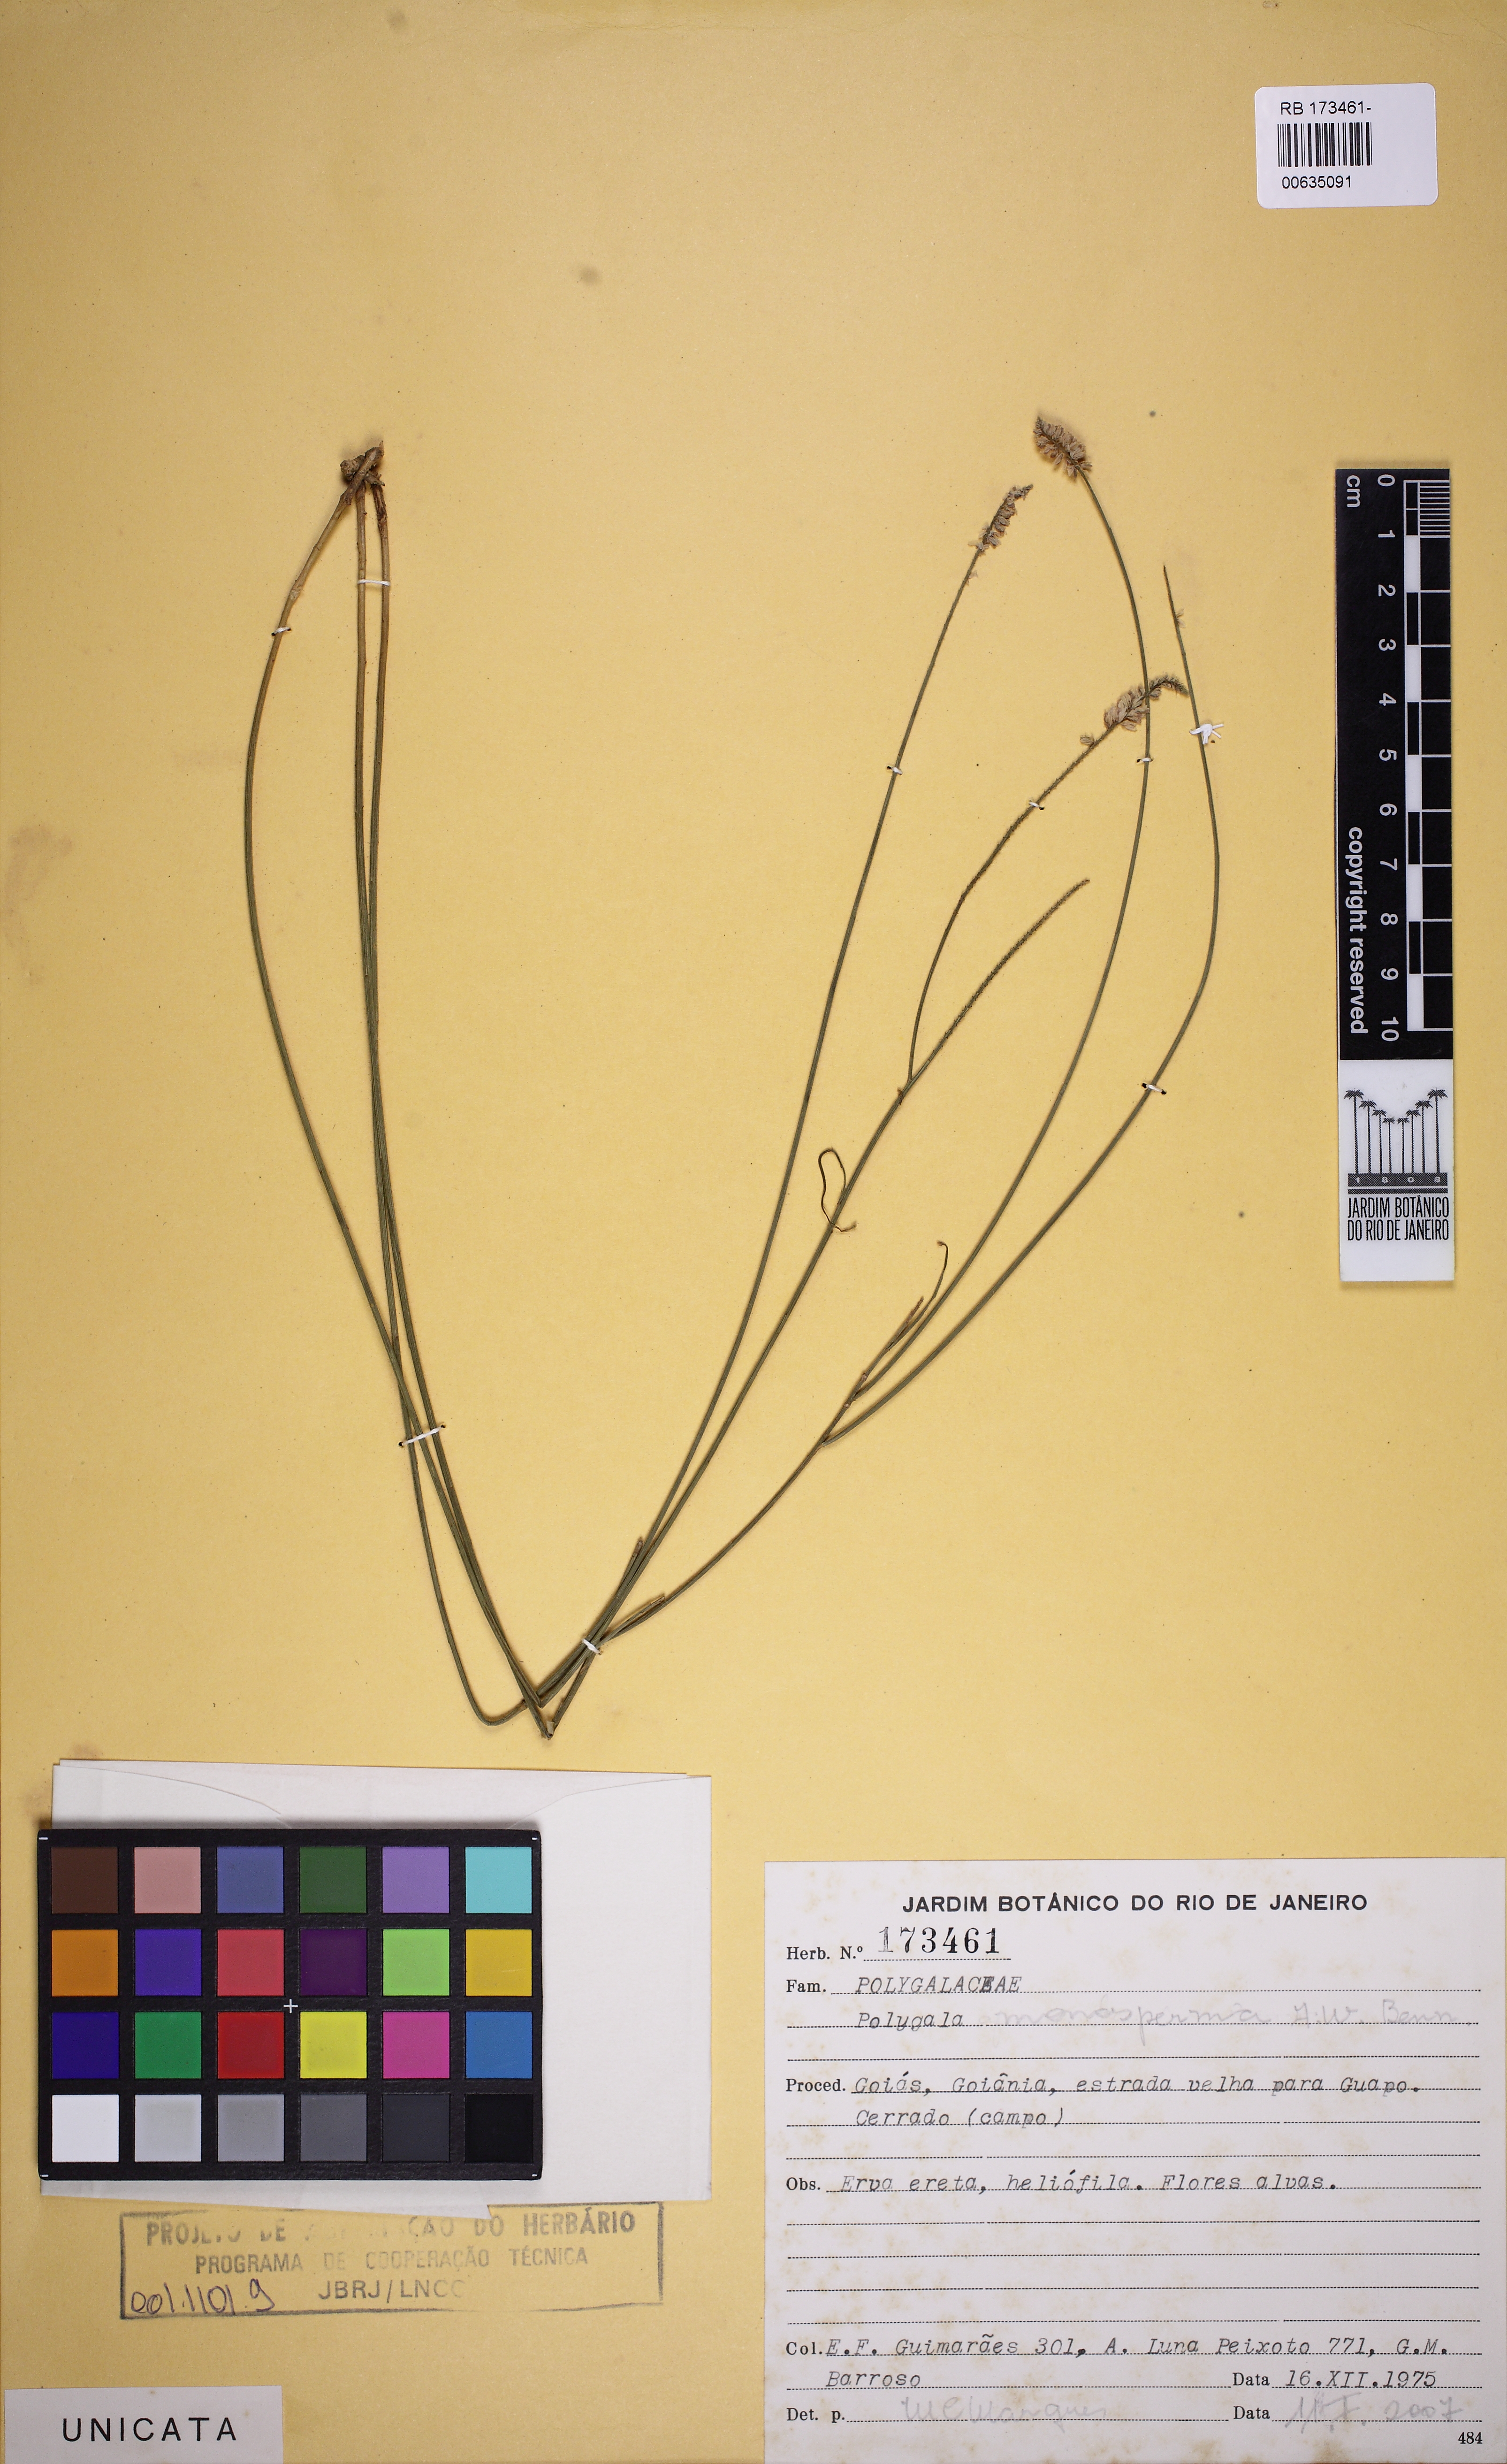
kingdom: Plantae
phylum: Tracheophyta
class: Magnoliopsida
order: Fabales
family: Polygalaceae
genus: Polygala
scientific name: Polygala monosperma
